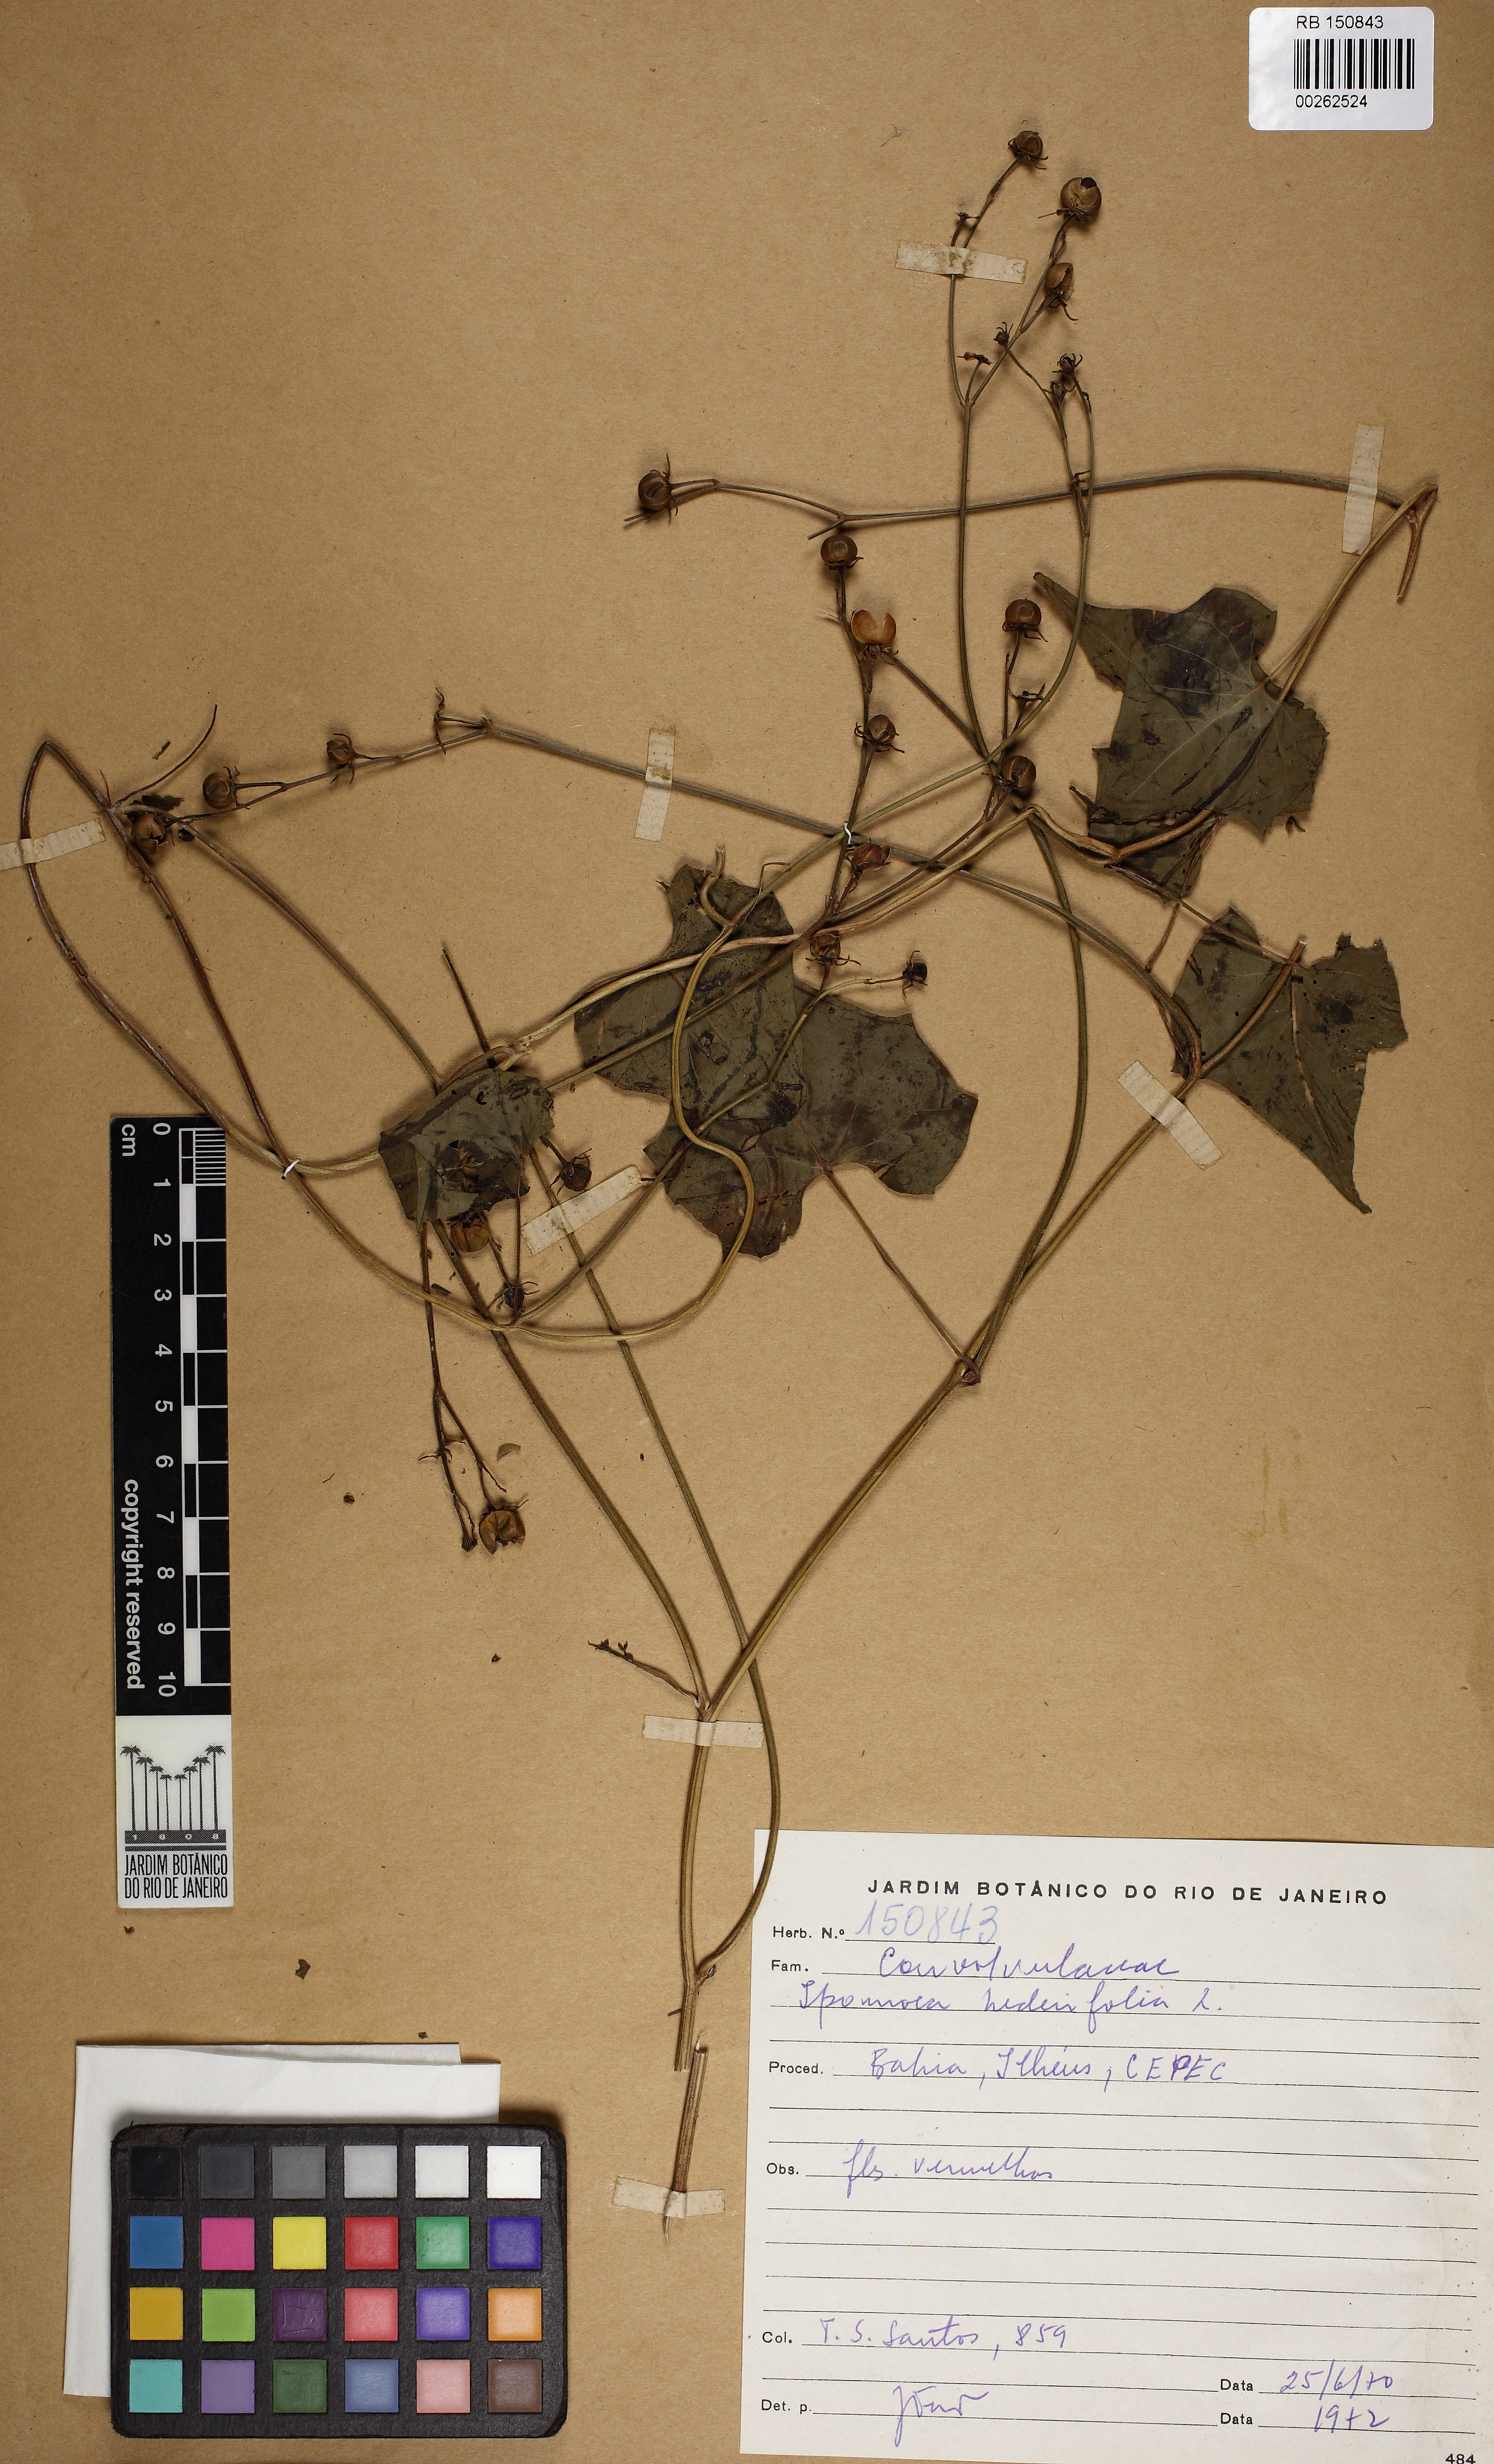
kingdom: Plantae
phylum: Tracheophyta
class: Magnoliopsida
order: Solanales
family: Convolvulaceae
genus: Ipomoea
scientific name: Ipomoea hederifolia
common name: Ivy-leaf morning-glory
